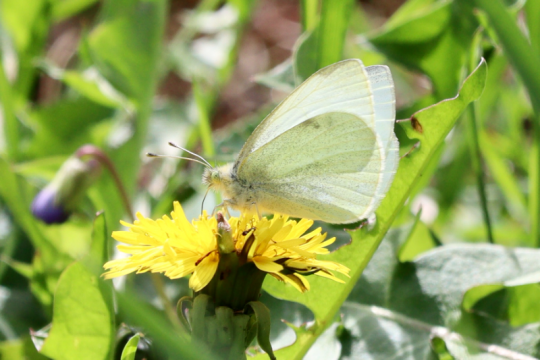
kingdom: Animalia
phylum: Arthropoda
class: Insecta
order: Lepidoptera
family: Pieridae
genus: Pieris
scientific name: Pieris rapae
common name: Cabbage White
